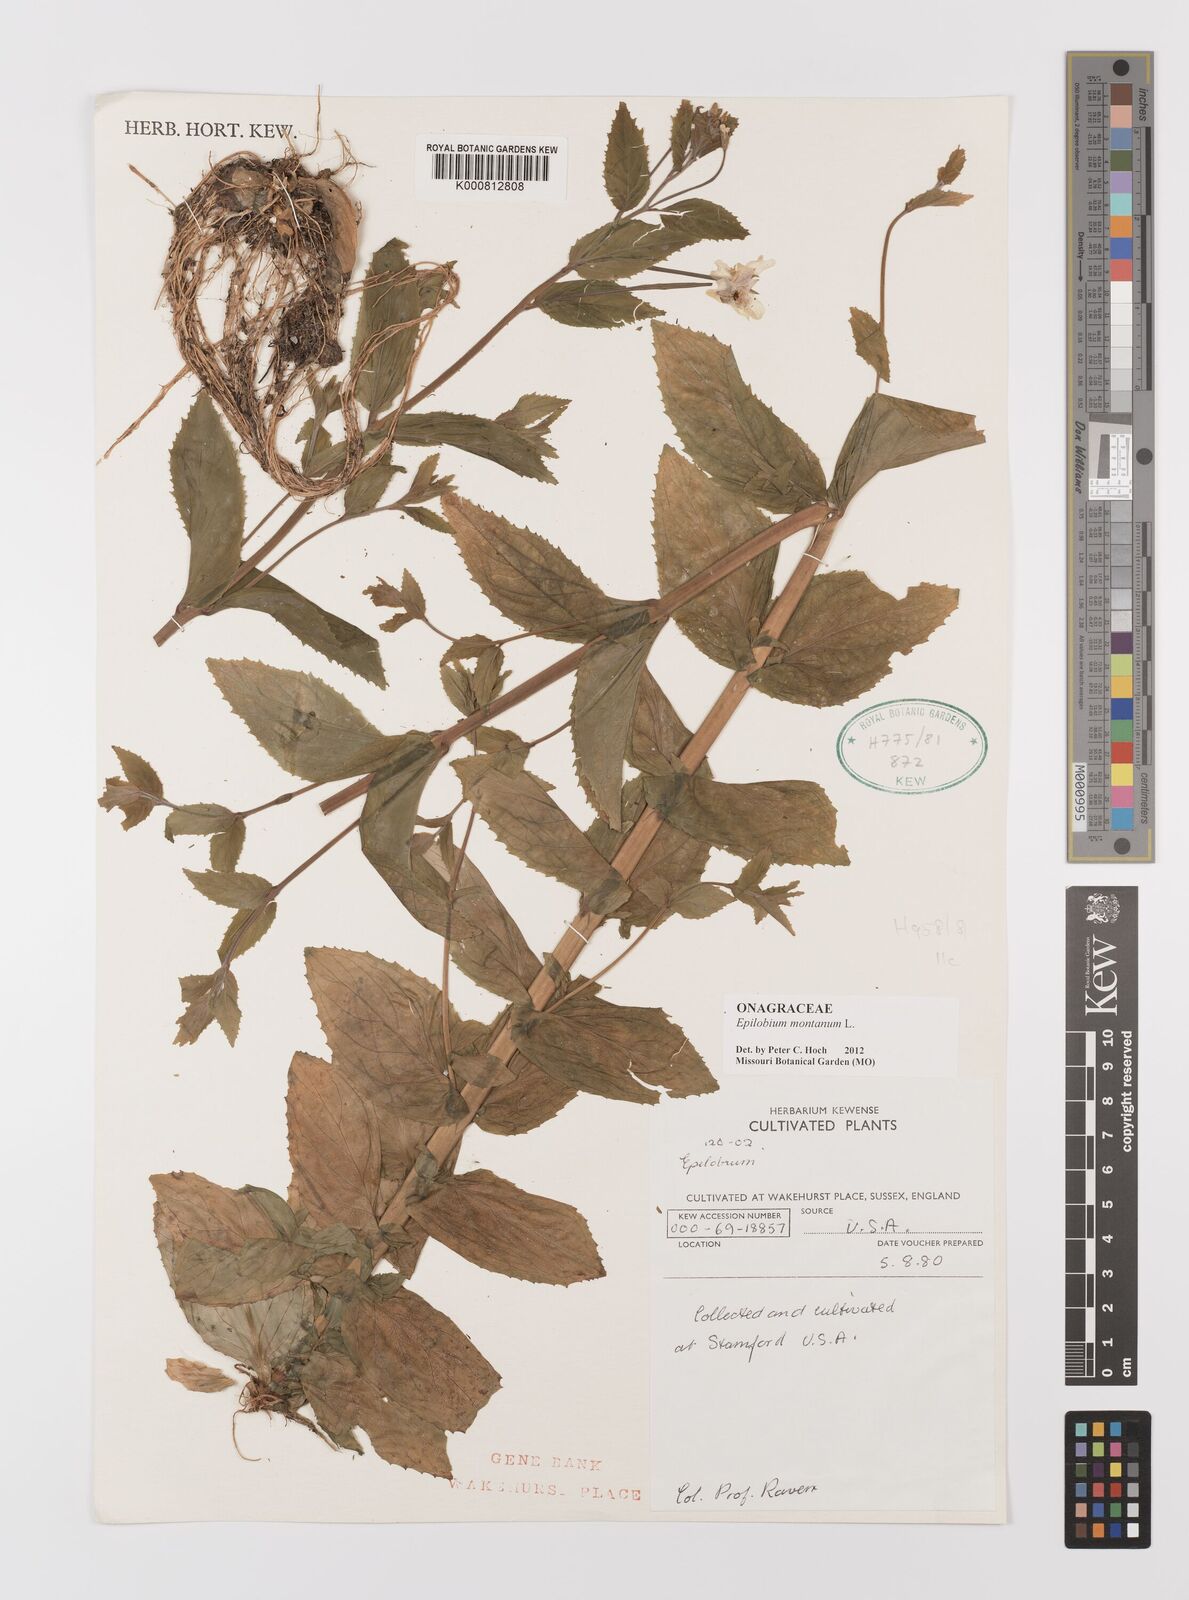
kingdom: Plantae
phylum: Tracheophyta
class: Magnoliopsida
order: Myrtales
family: Onagraceae
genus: Epilobium
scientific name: Epilobium montanum
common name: Broad-leaved willowherb
